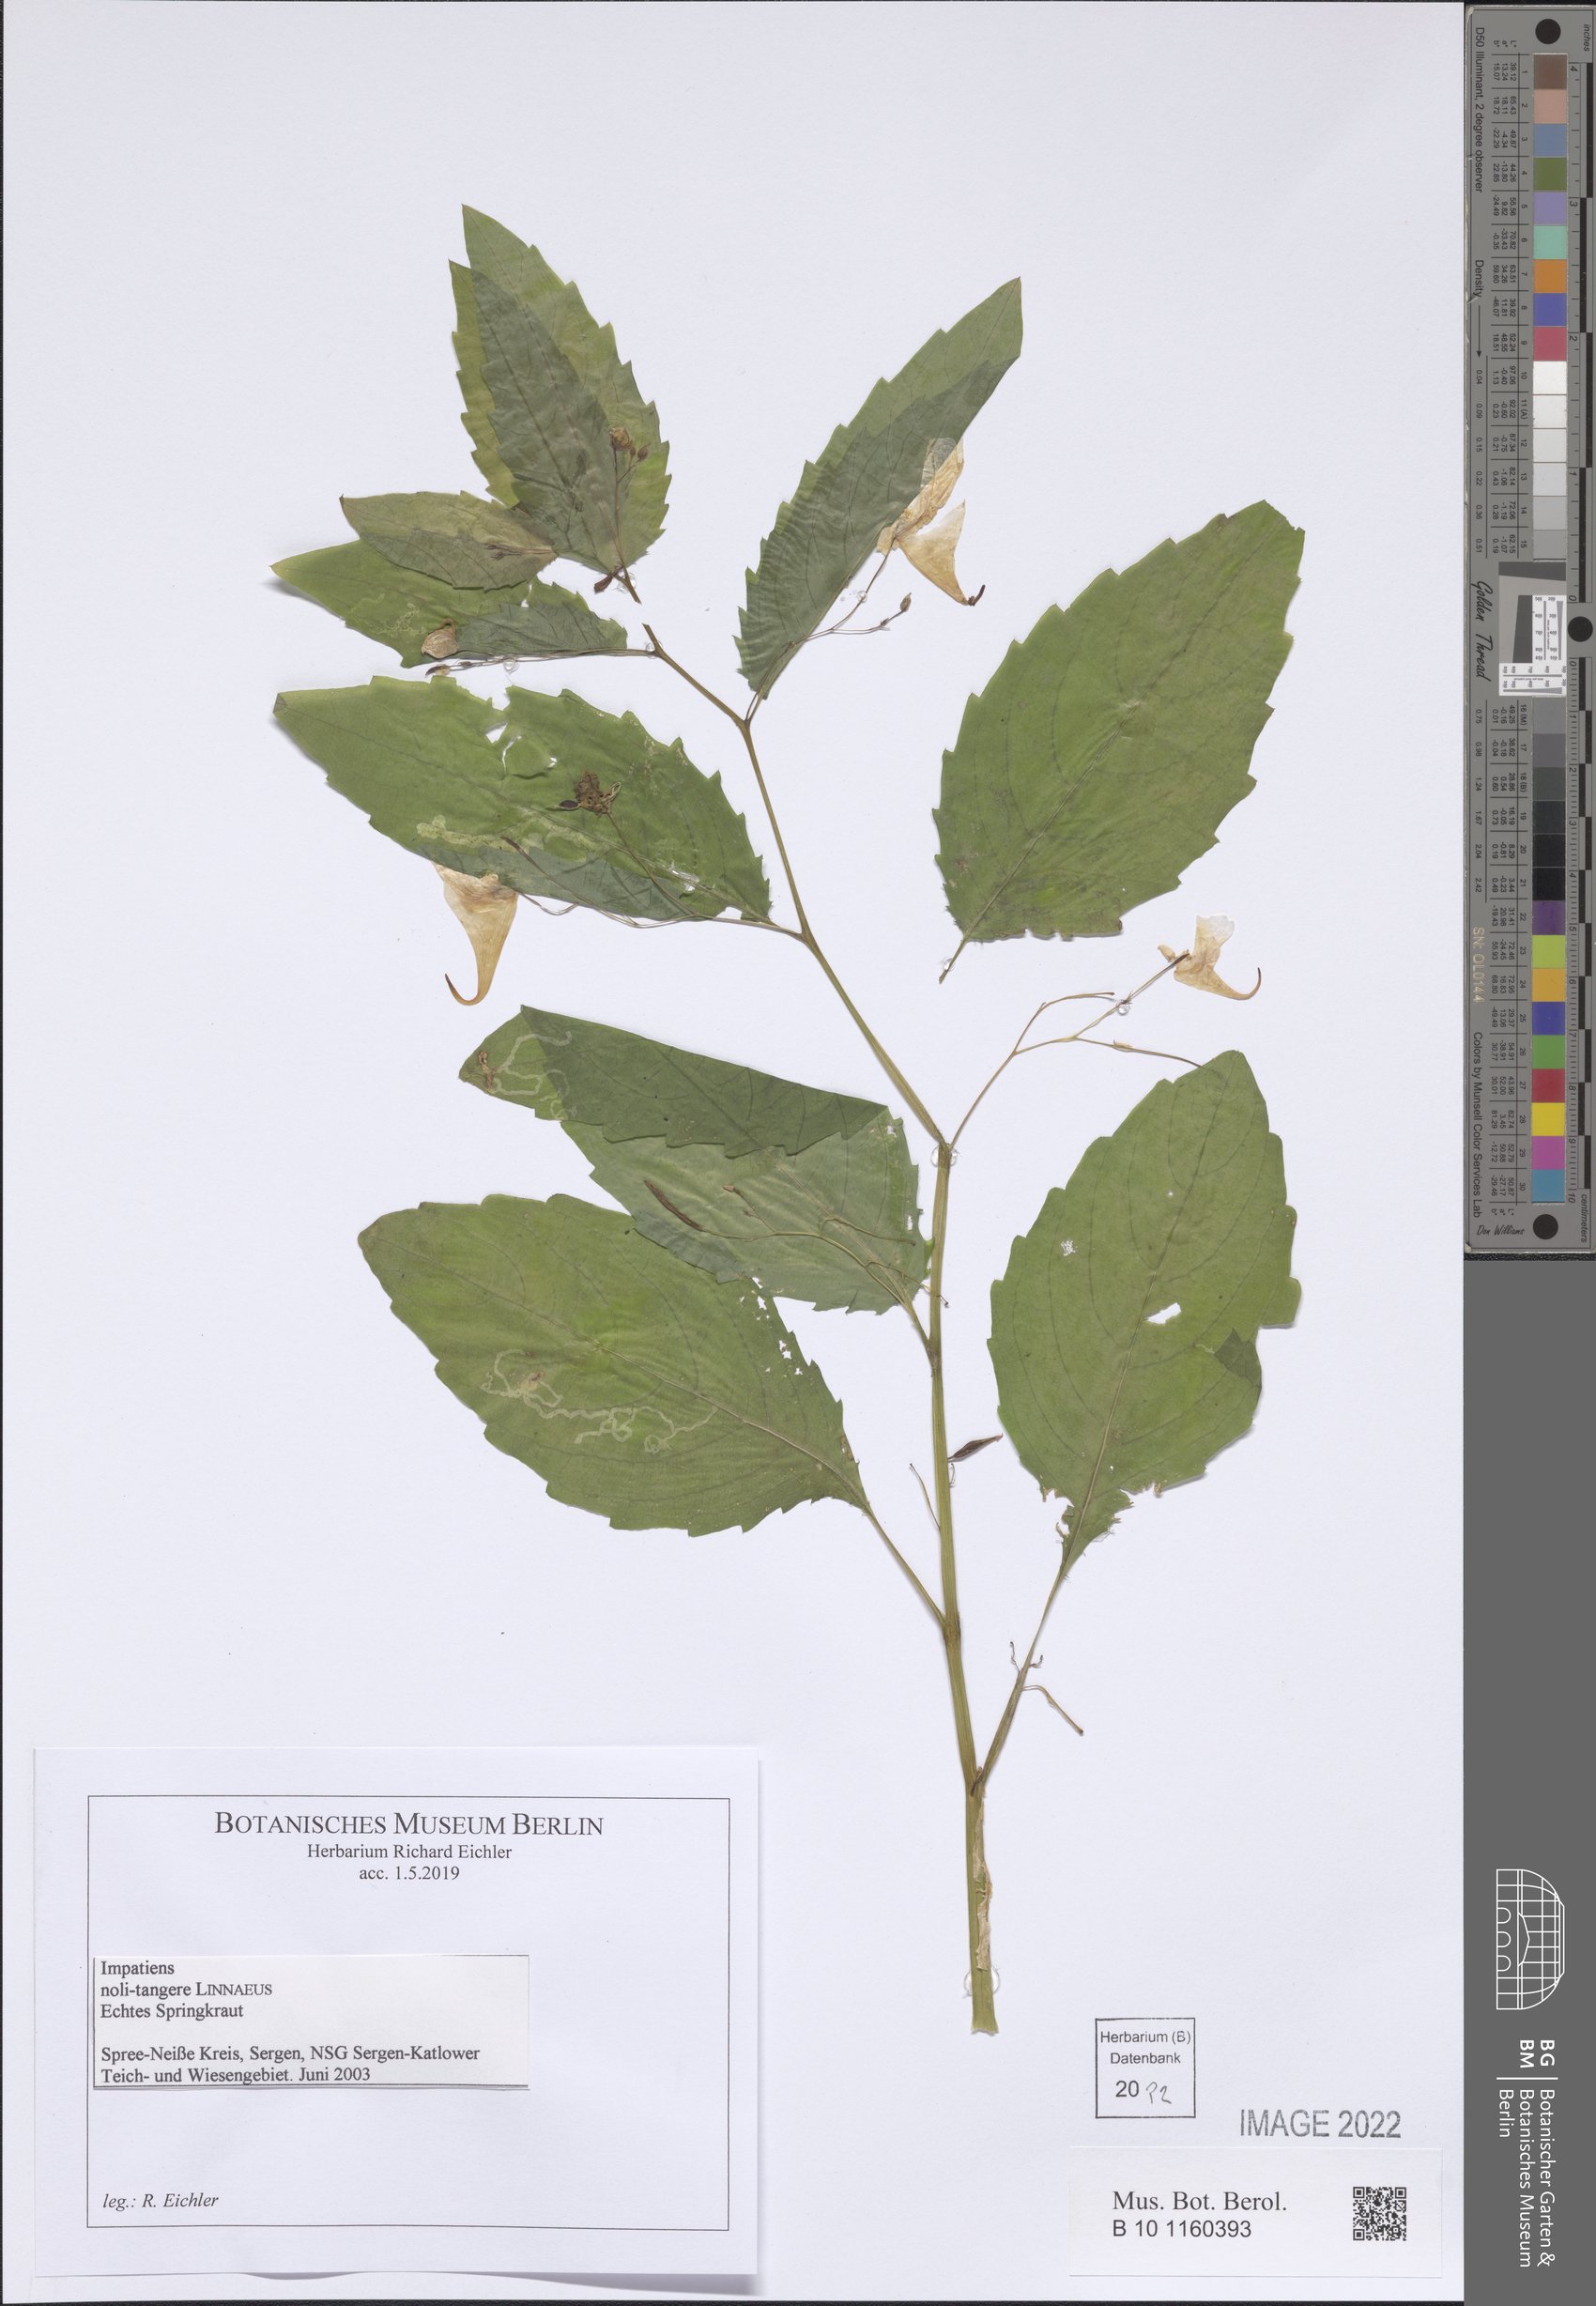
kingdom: Plantae
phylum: Tracheophyta
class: Magnoliopsida
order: Ericales
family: Balsaminaceae
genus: Impatiens
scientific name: Impatiens noli-tangere
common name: Touch-me-not balsam
